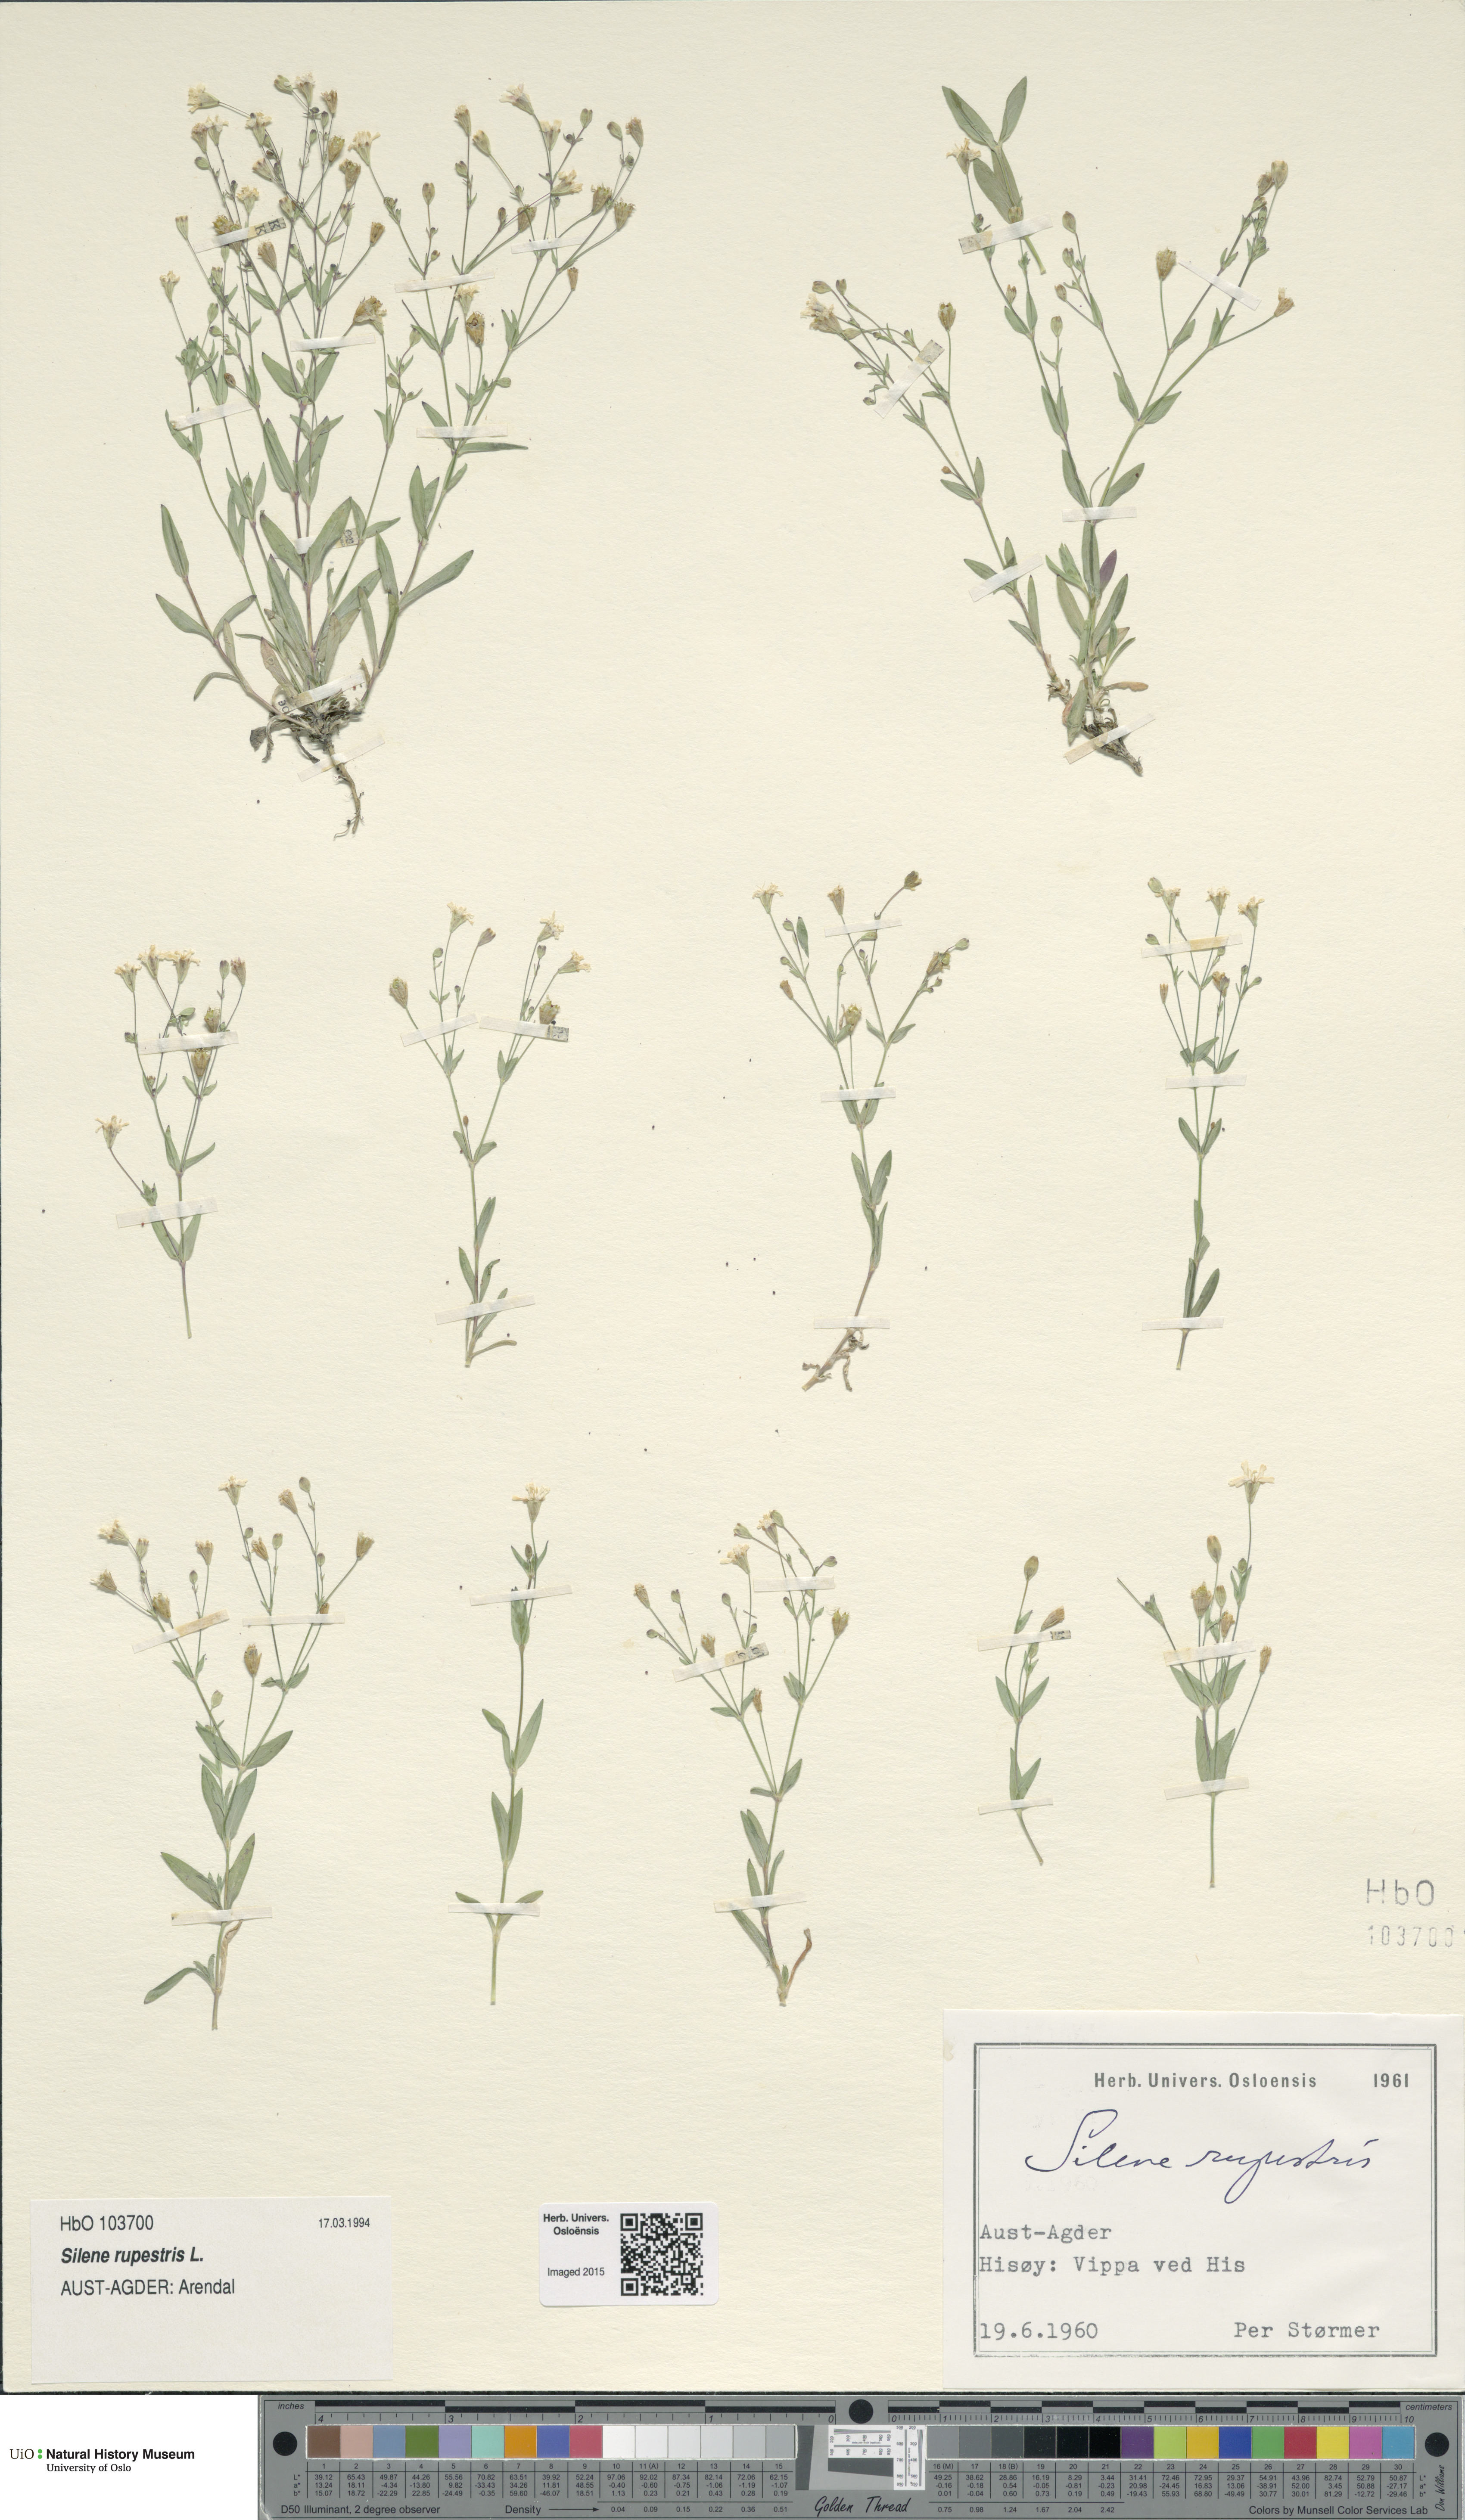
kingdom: Plantae
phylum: Tracheophyta
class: Magnoliopsida
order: Caryophyllales
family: Caryophyllaceae
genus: Atocion
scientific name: Atocion rupestre
